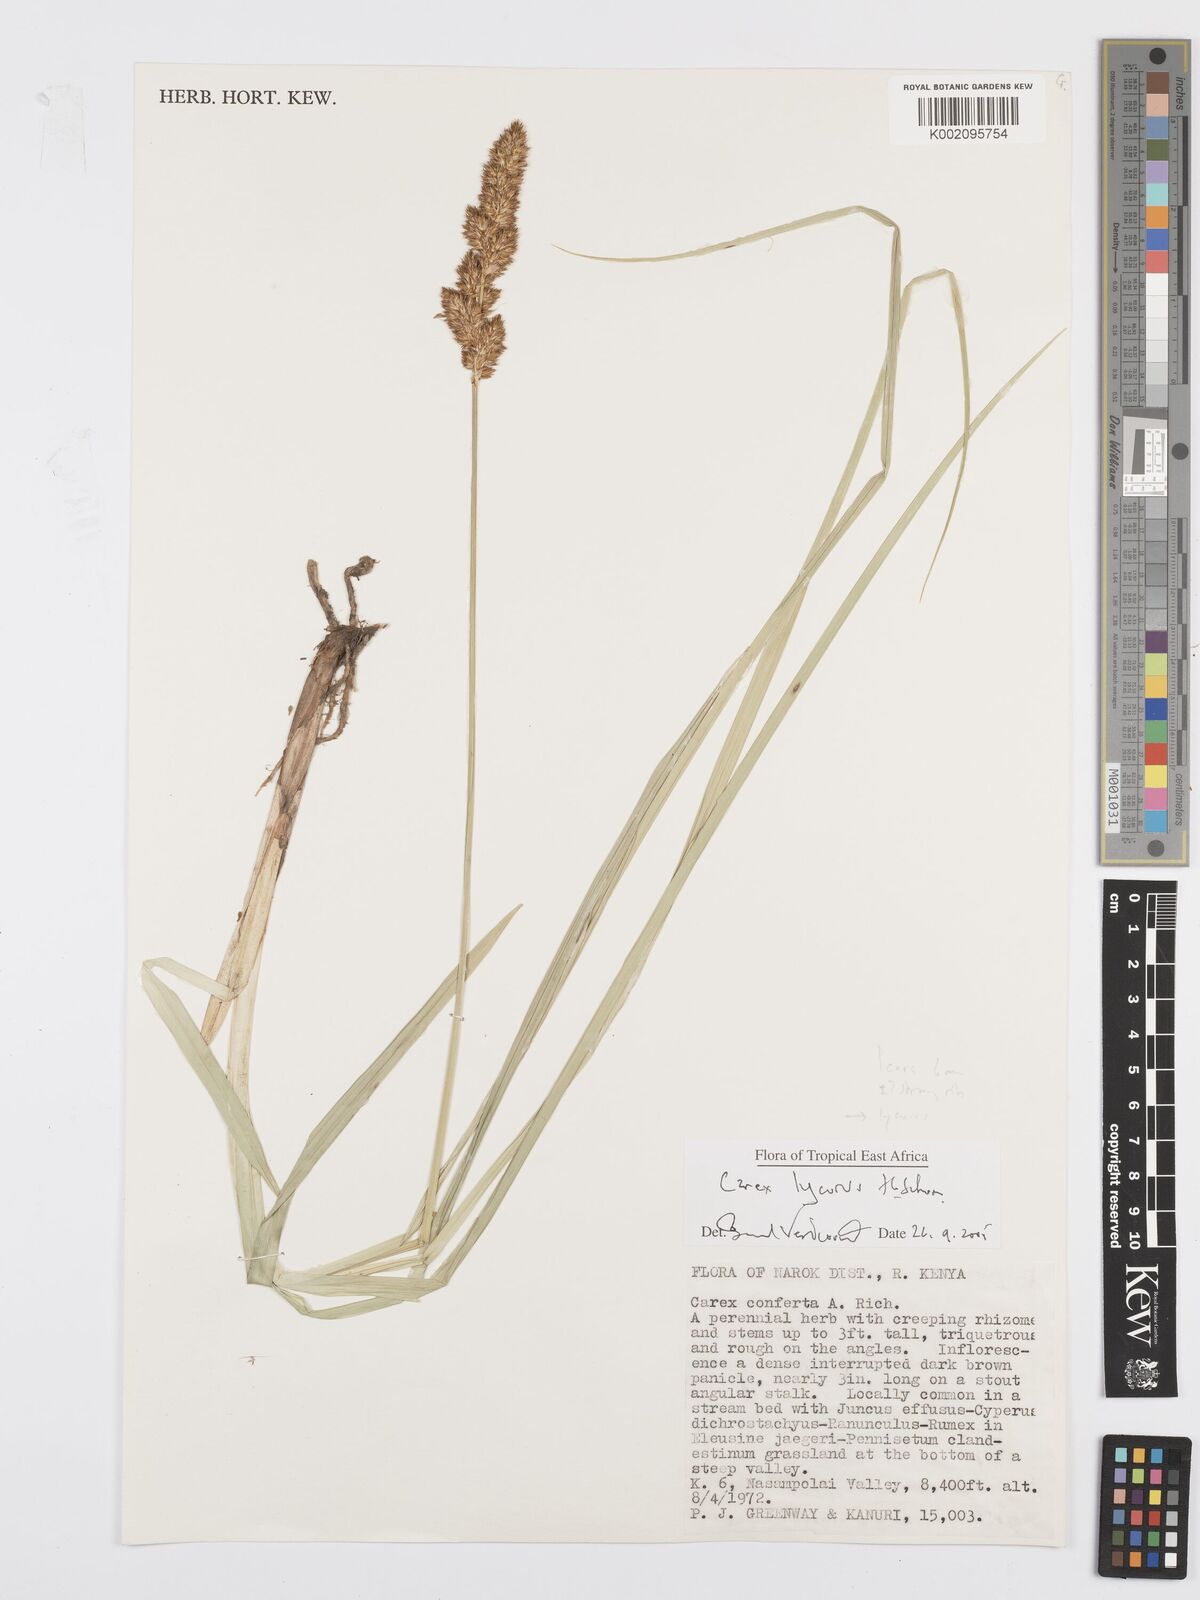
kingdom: Plantae
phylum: Tracheophyta
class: Liliopsida
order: Poales
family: Cyperaceae
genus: Carex
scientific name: Carex lycurus
